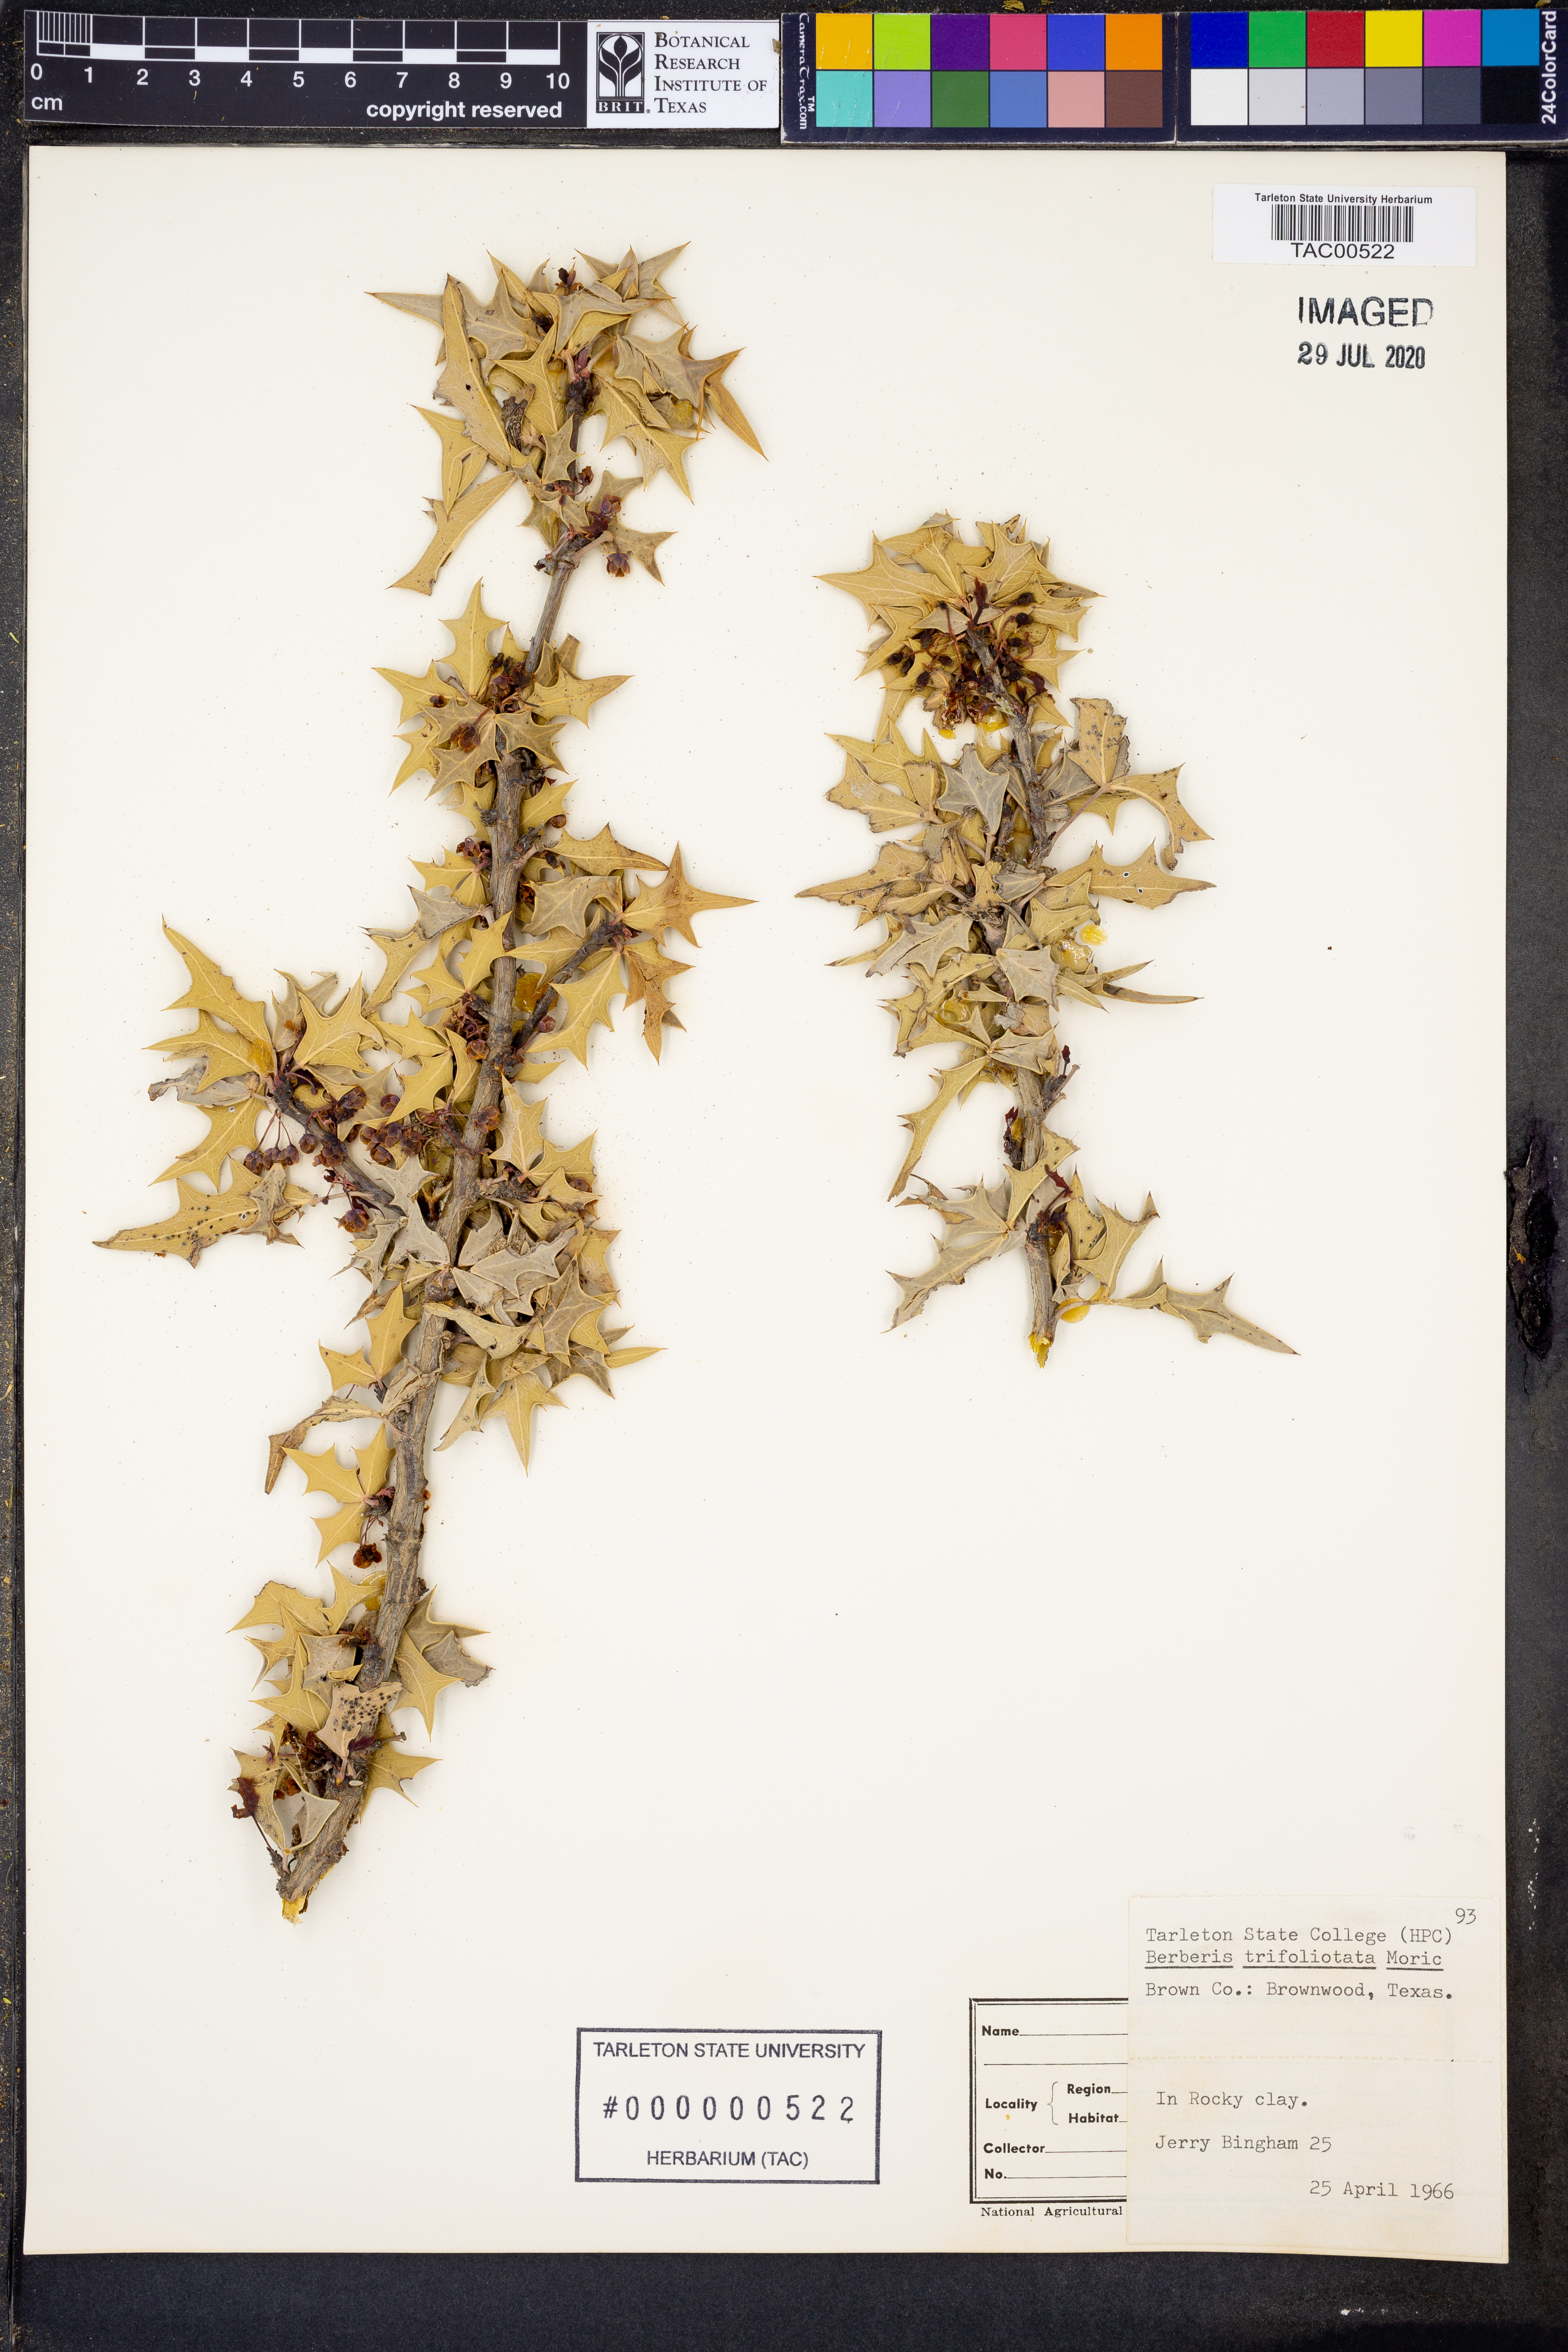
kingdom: Plantae
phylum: Tracheophyta
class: Magnoliopsida
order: Ranunculales
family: Berberidaceae
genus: Alloberberis
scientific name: Alloberberis trifoliolata
